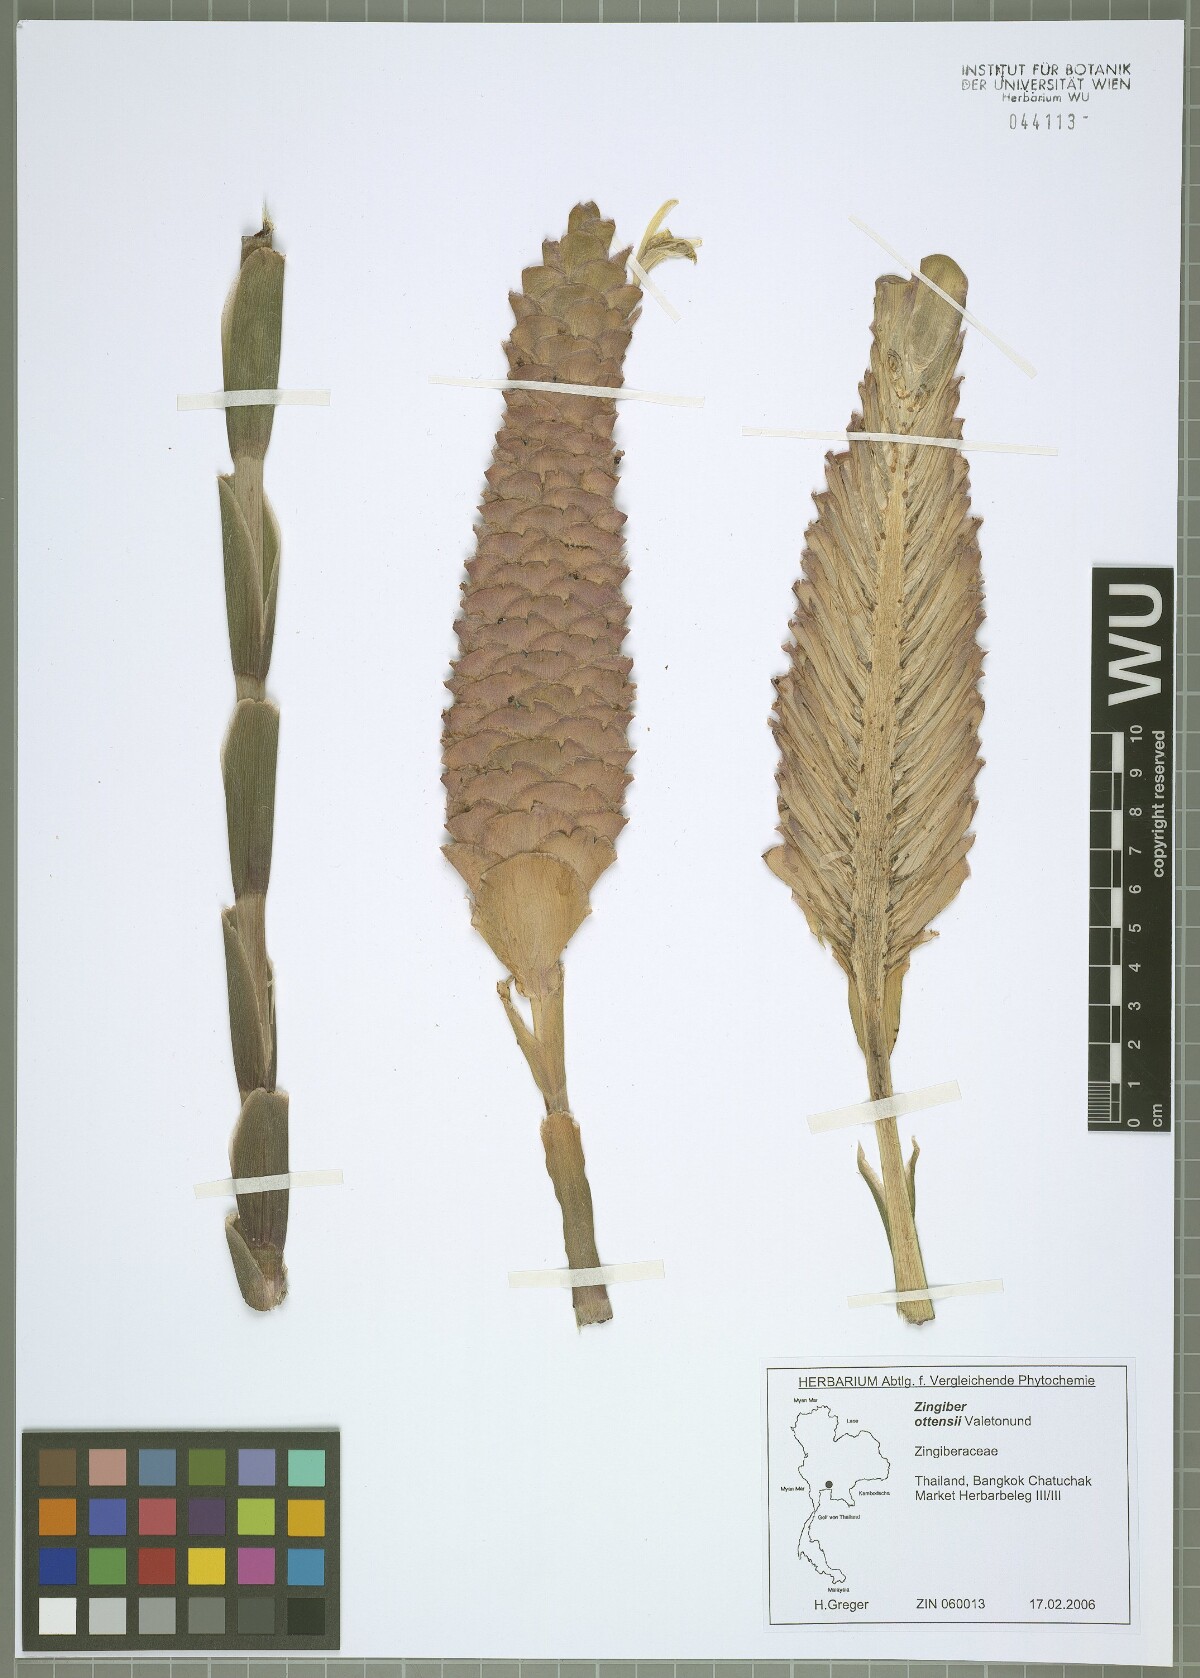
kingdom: Plantae
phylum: Tracheophyta
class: Liliopsida
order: Zingiberales
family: Zingiberaceae
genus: Zingiber
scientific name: Zingiber ottensii
